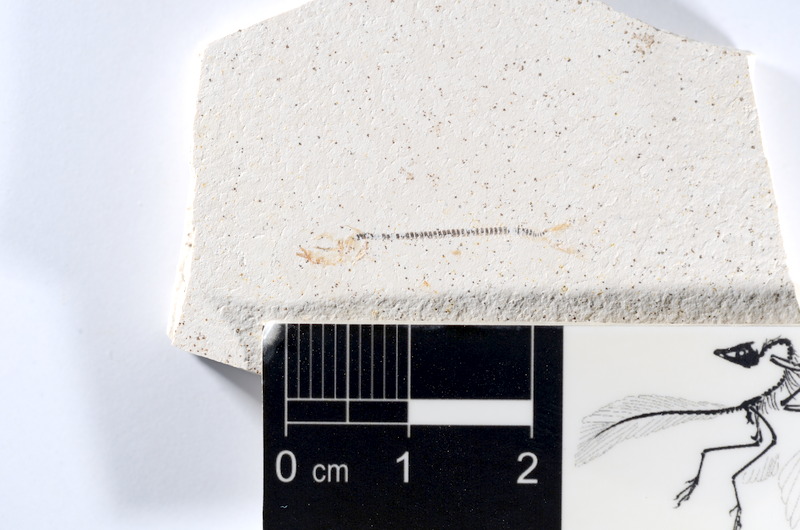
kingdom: Animalia
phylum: Chordata
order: Salmoniformes
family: Orthogonikleithridae
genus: Orthogonikleithrus
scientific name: Orthogonikleithrus hoelli
